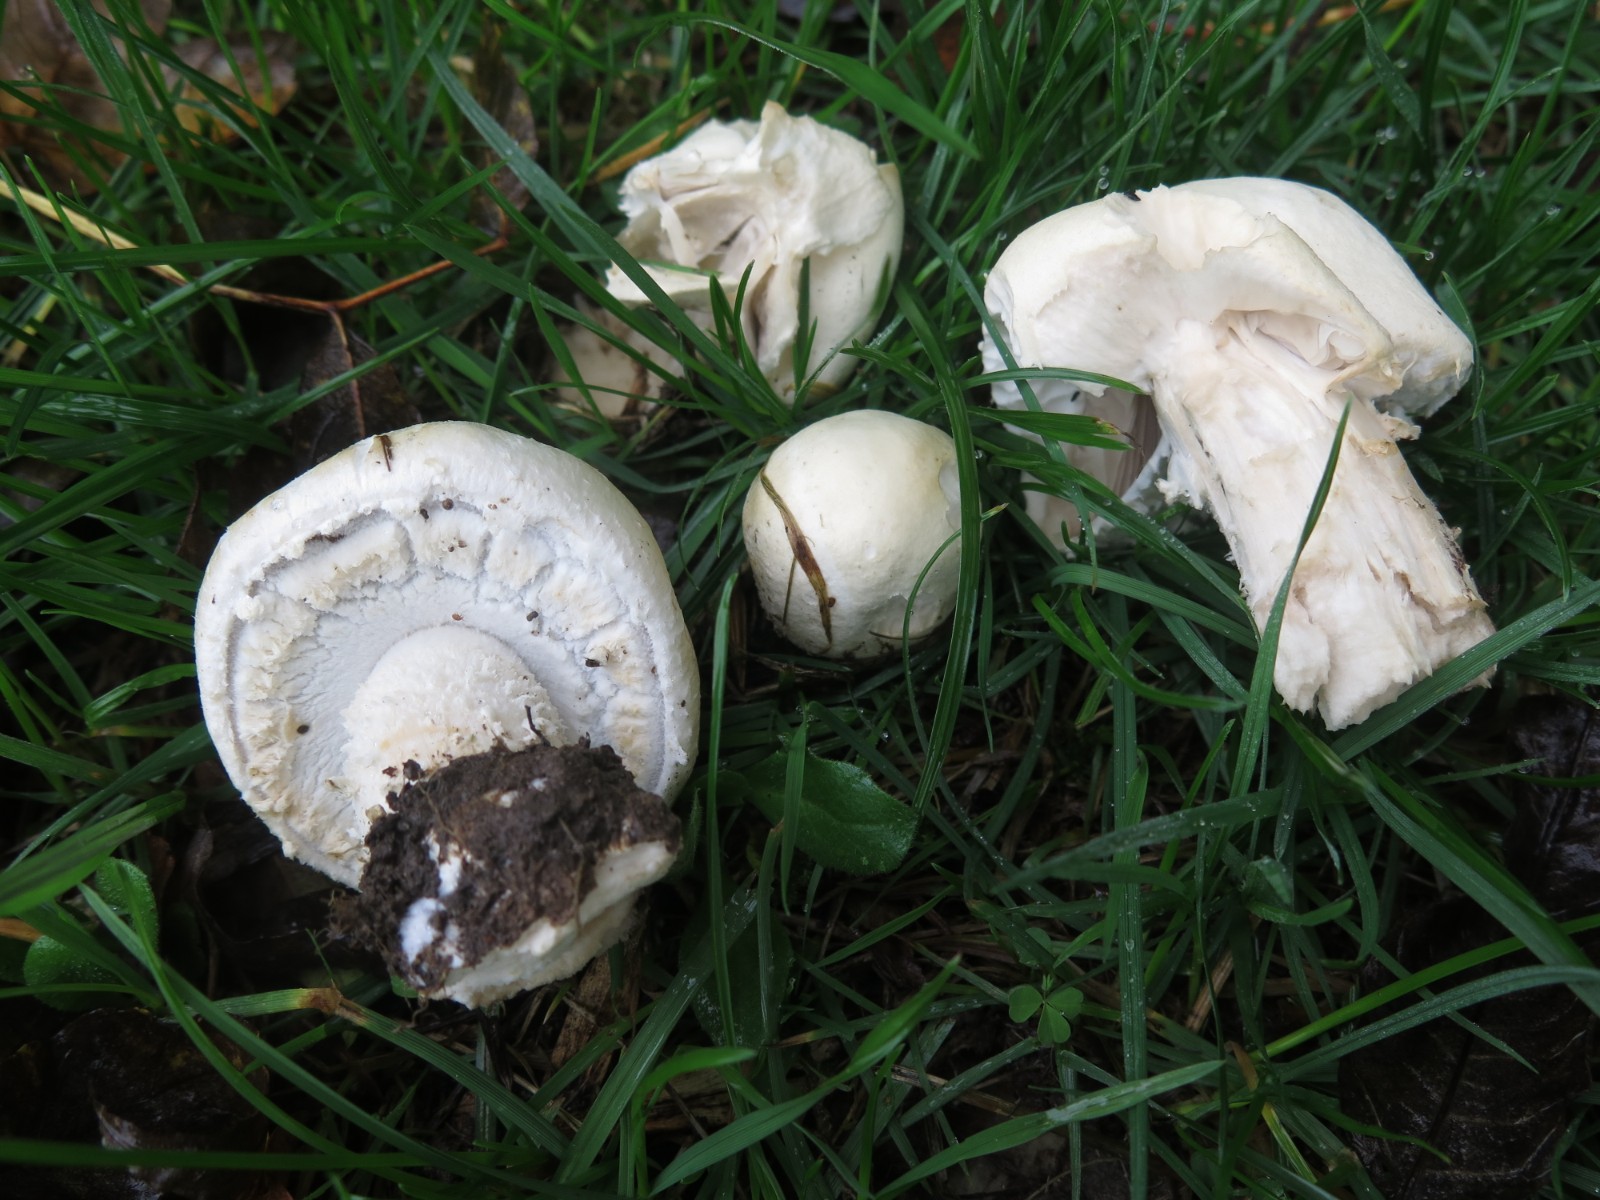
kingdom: Fungi
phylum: Basidiomycota
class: Agaricomycetes
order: Agaricales
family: Agaricaceae
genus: Agaricus
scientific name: Agaricus arvensis
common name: ager-champignon
